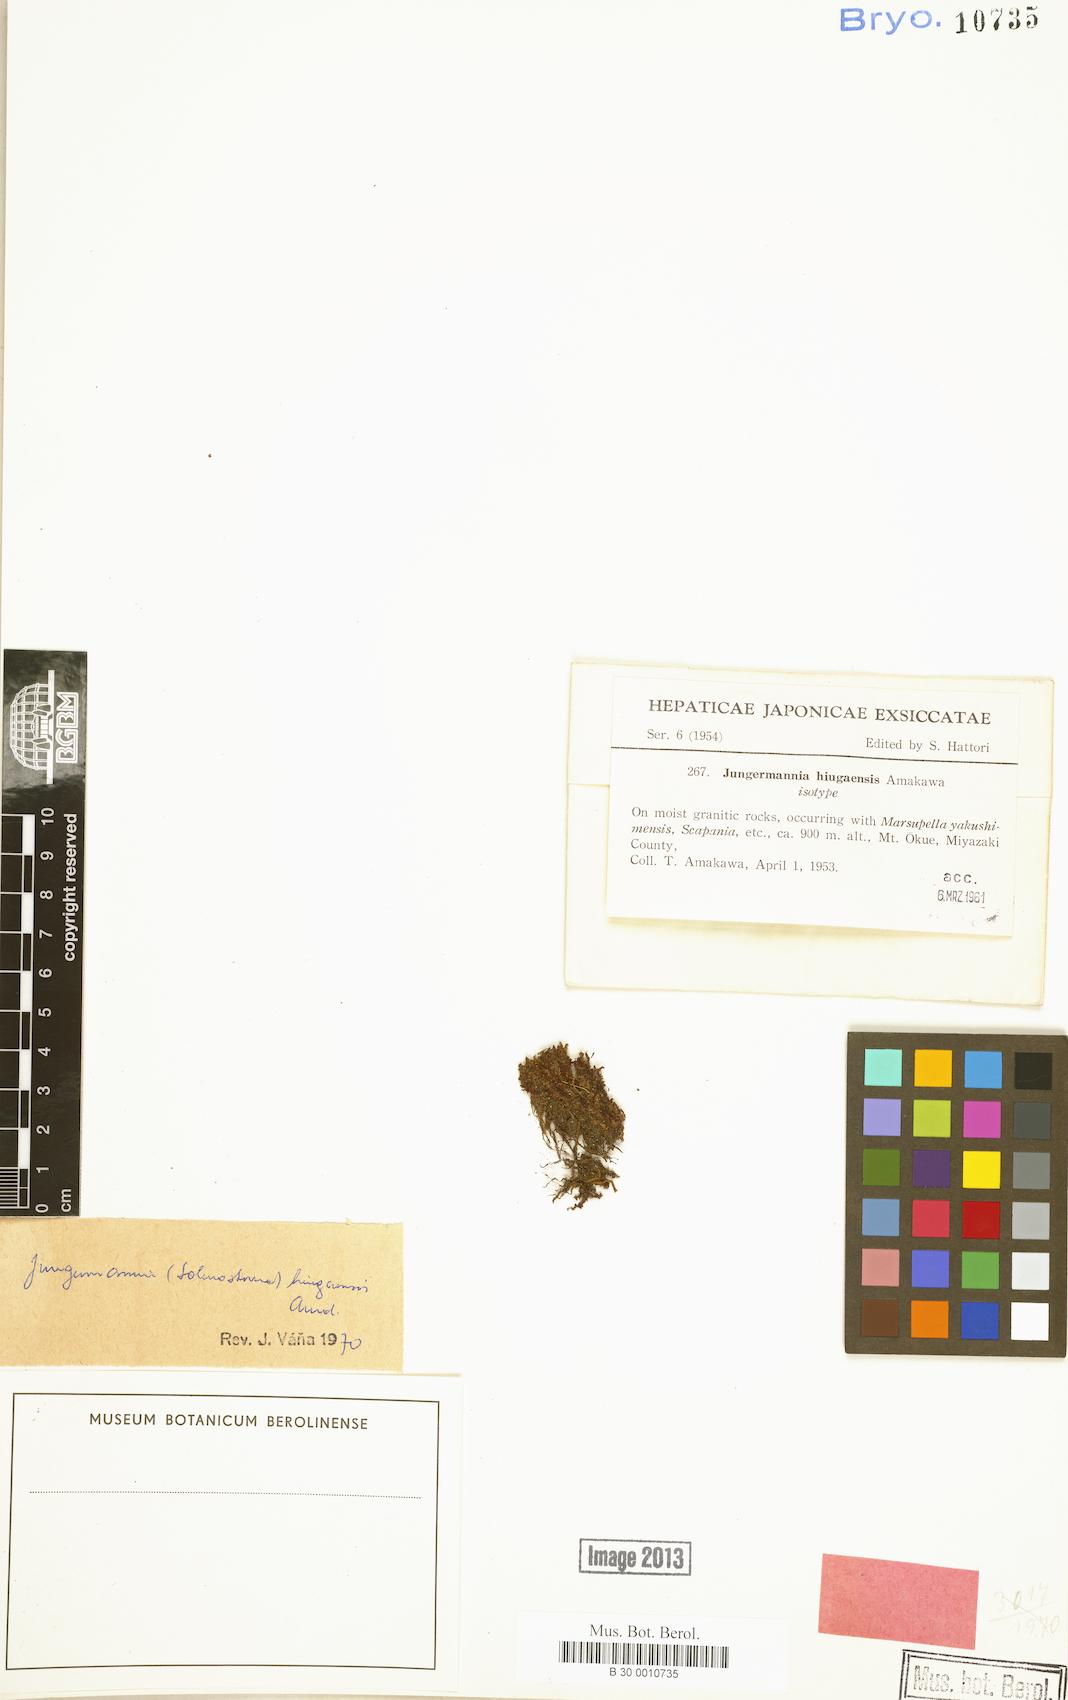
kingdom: Plantae
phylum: Marchantiophyta
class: Jungermanniopsida
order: Jungermanniales
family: Solenostomataceae
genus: Solenostoma
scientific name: Solenostoma hiugaense
